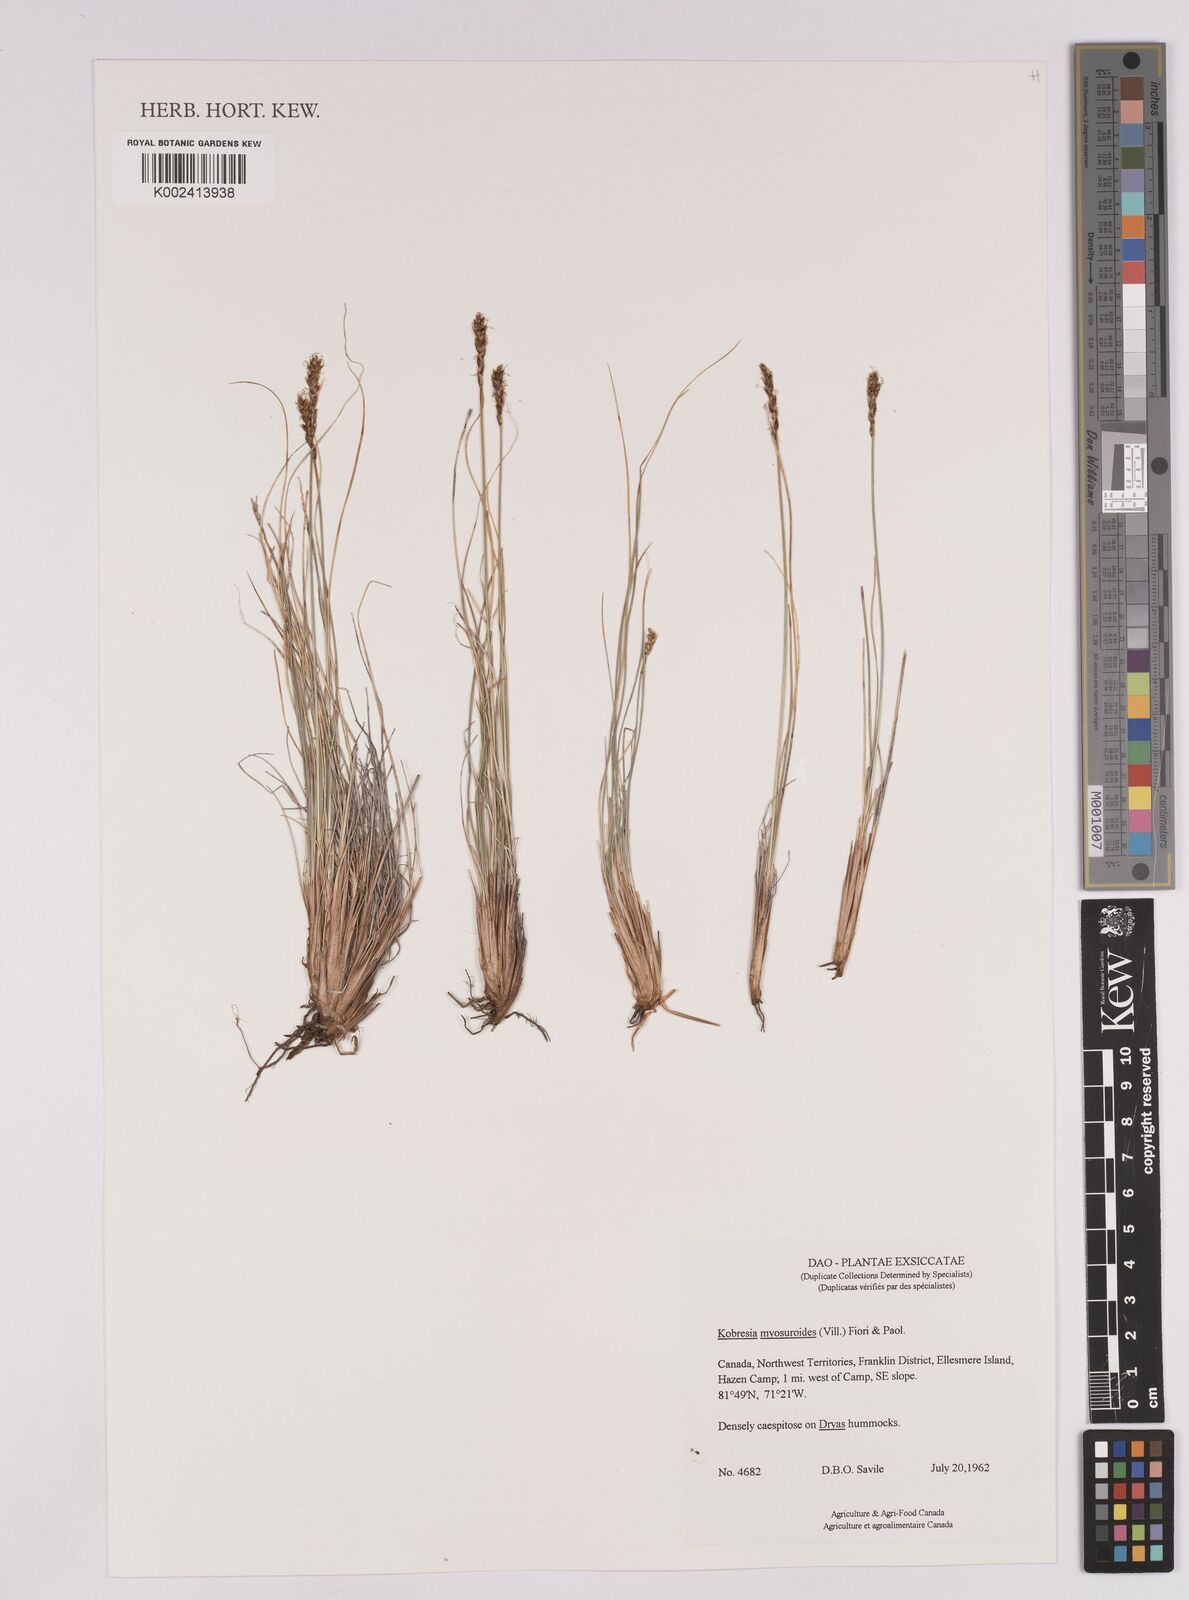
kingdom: Plantae
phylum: Tracheophyta
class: Liliopsida
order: Poales
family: Cyperaceae
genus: Carex
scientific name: Carex myosuroides
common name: Bellard's bog sedge
